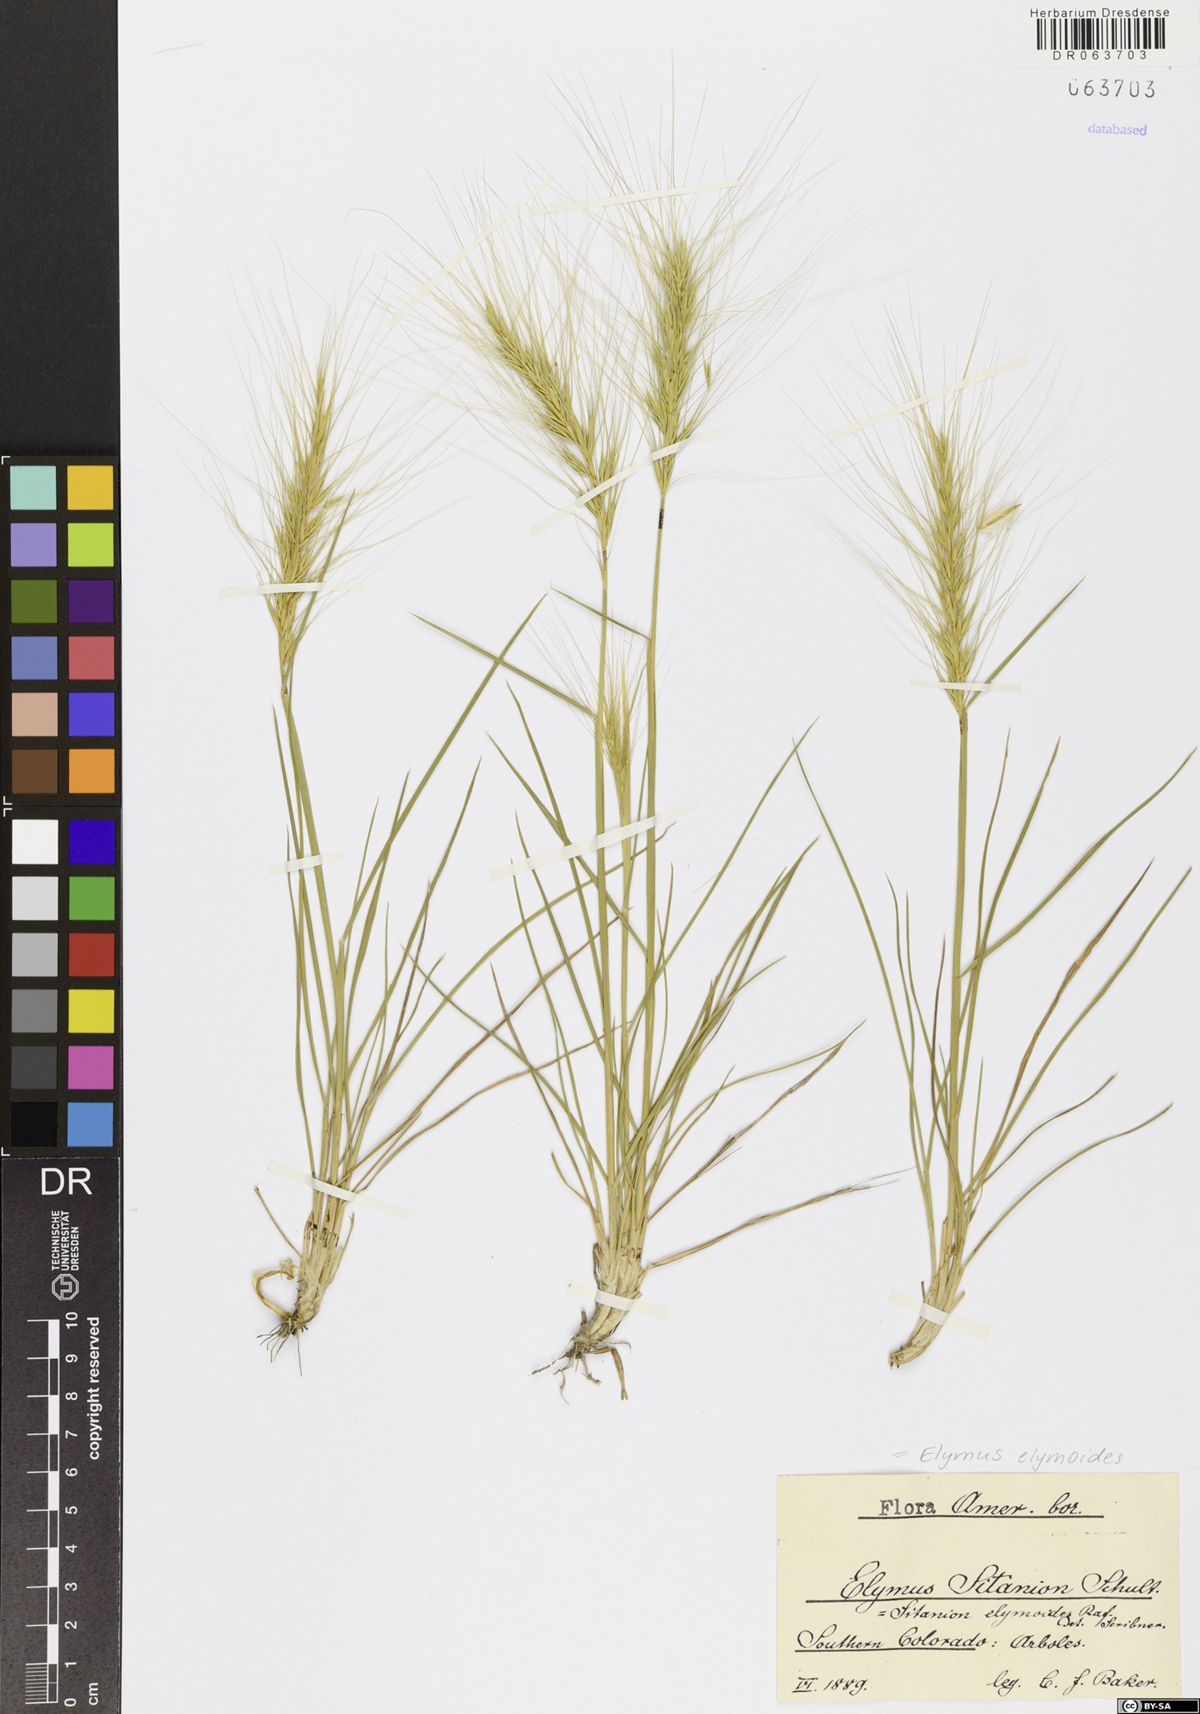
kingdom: Plantae
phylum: Tracheophyta
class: Liliopsida
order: Poales
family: Poaceae
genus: Elymus
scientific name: Elymus elymoides
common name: Bottlebrush squirreltail
